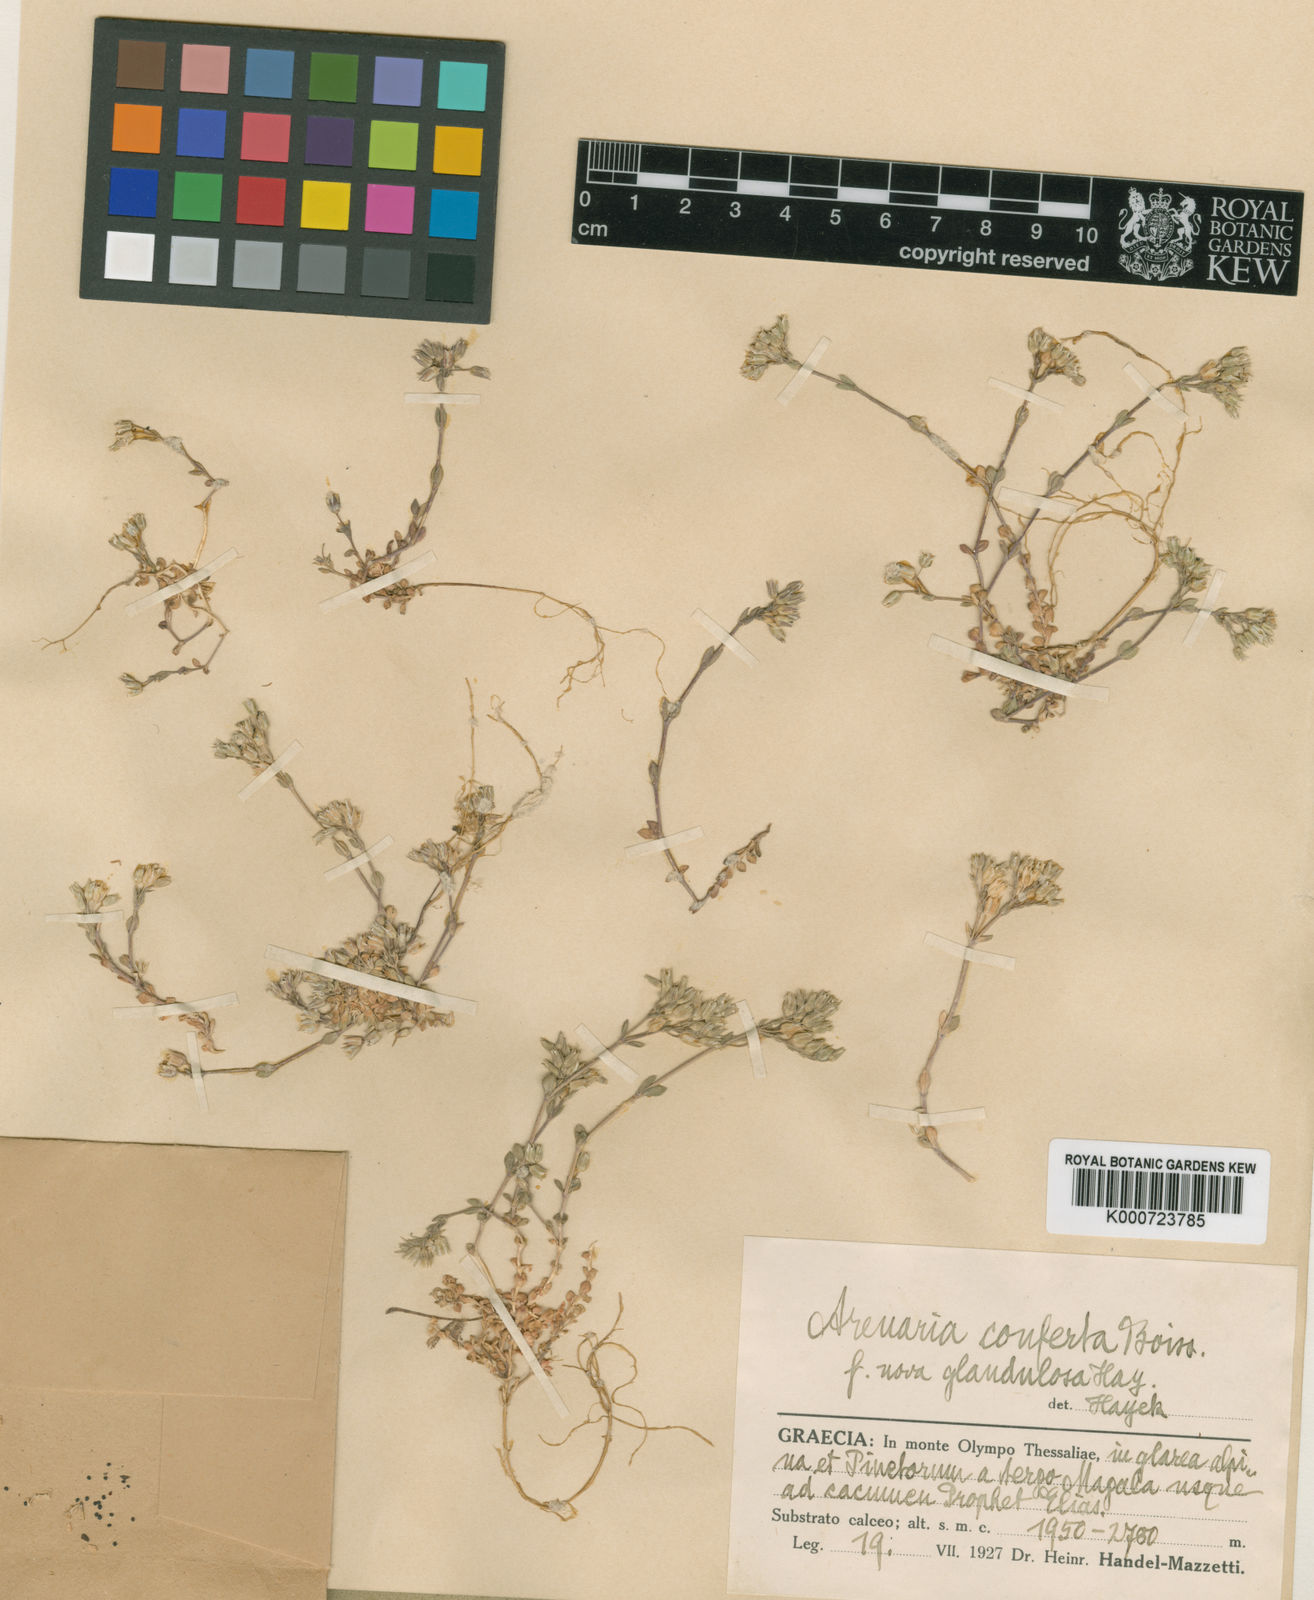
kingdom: Plantae
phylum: Tracheophyta
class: Magnoliopsida
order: Caryophyllales
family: Caryophyllaceae
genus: Arenaria
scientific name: Arenaria conferta
